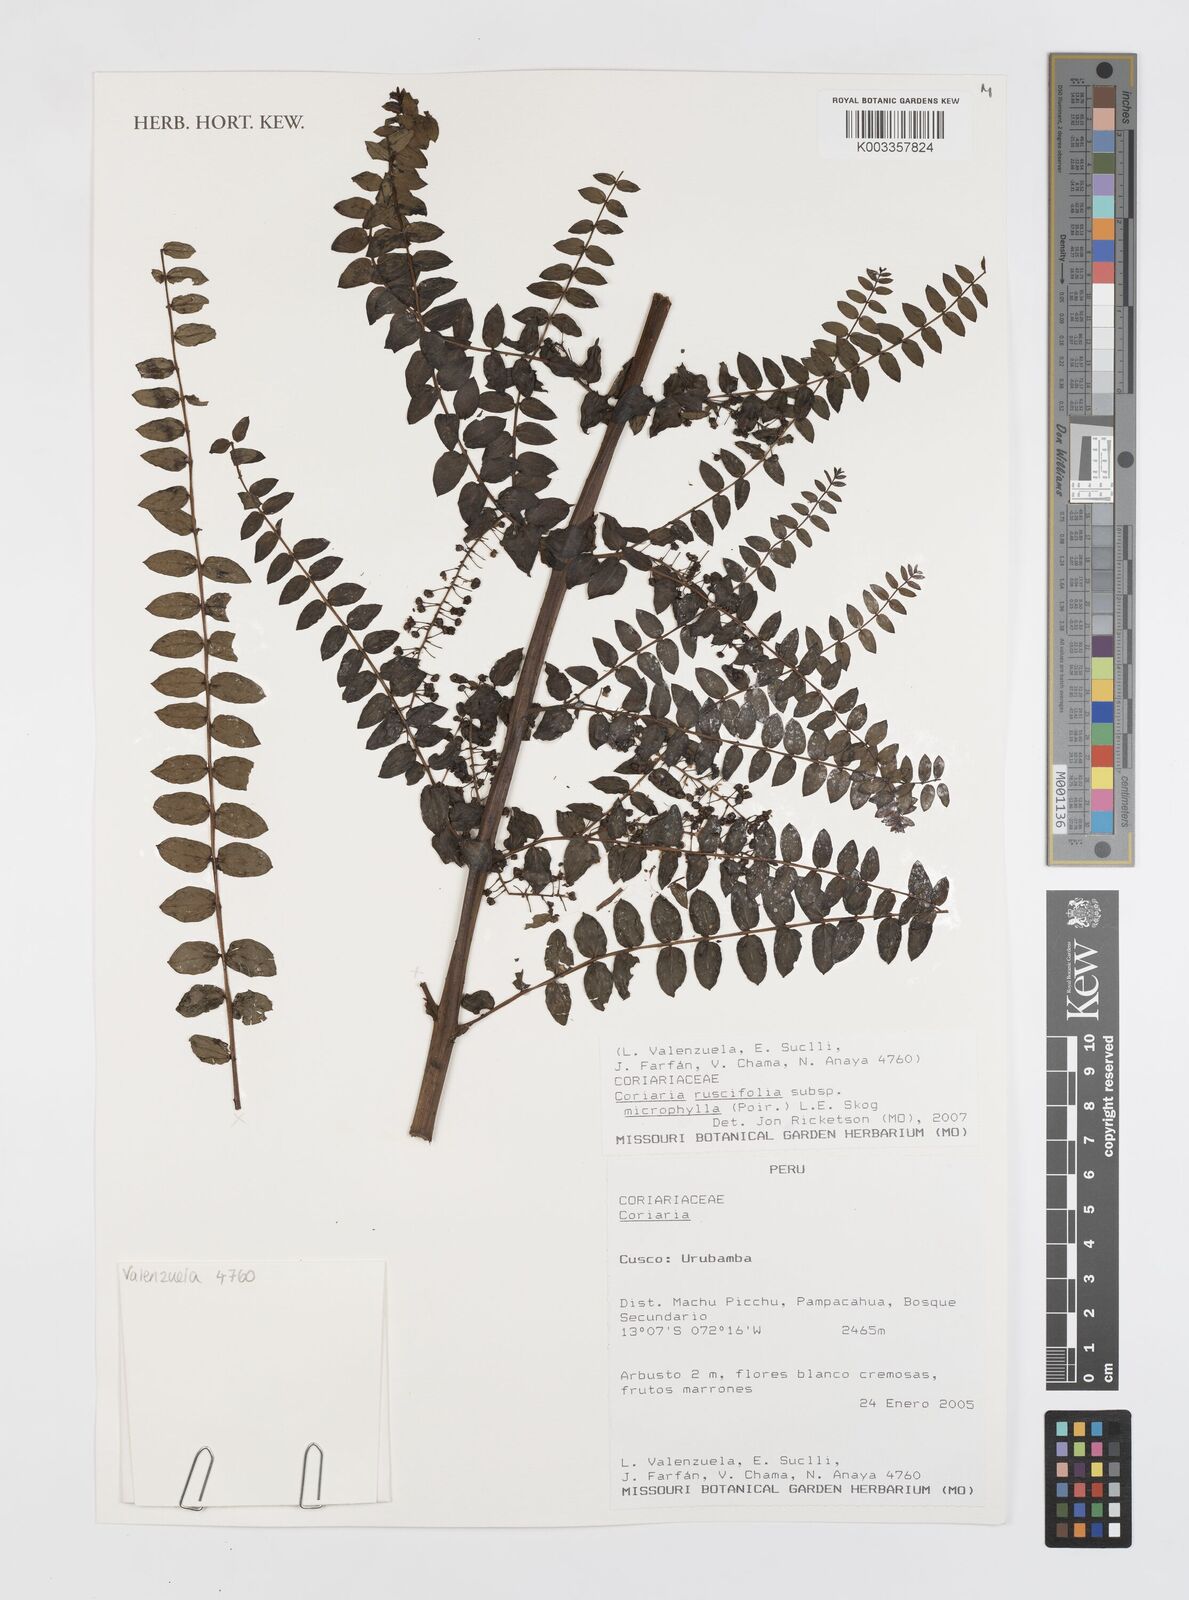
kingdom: Plantae
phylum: Tracheophyta
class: Magnoliopsida
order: Cucurbitales
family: Coriariaceae
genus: Coriaria
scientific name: Coriaria microphylla
